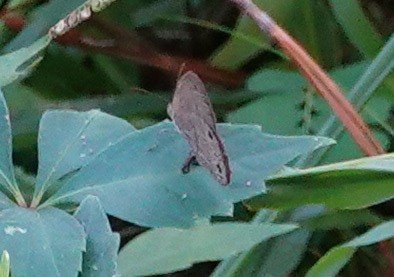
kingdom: Animalia
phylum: Arthropoda
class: Insecta
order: Lepidoptera
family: Nymphalidae
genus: Hermeuptychia
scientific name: Hermeuptychia hermes
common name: Carolina Satyr
